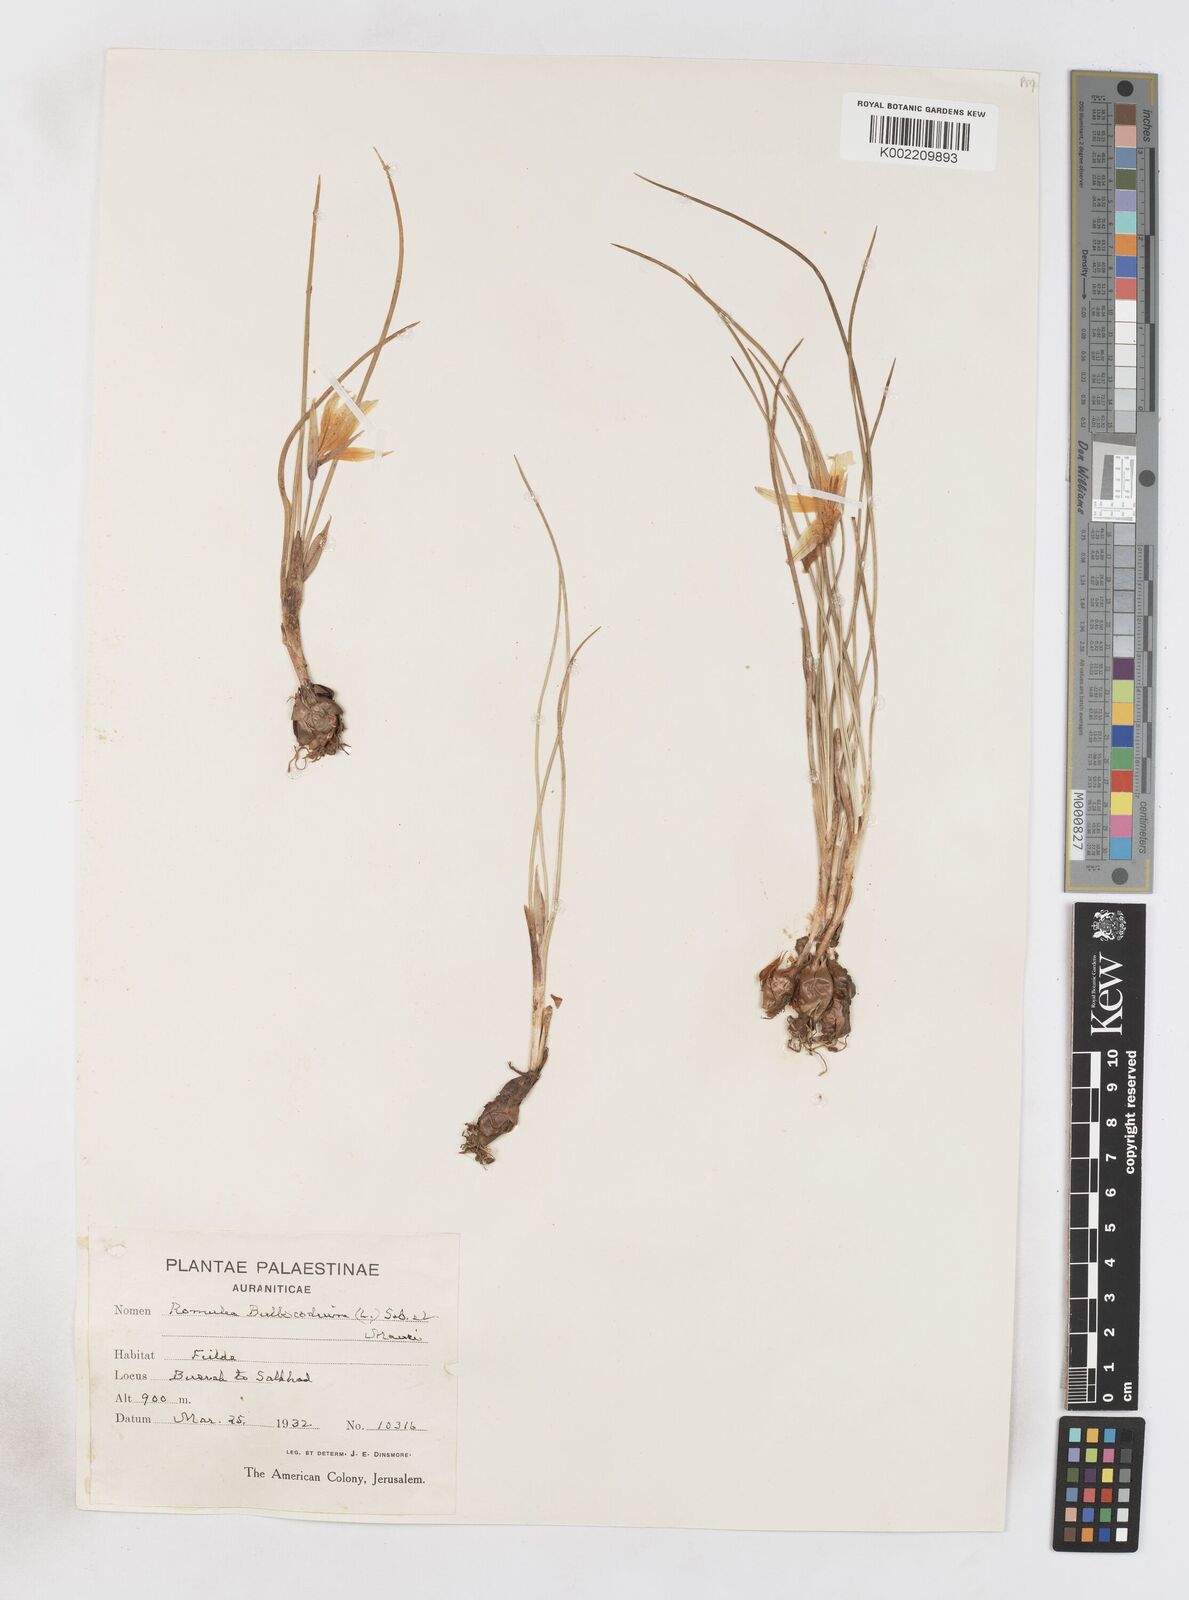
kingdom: Plantae
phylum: Tracheophyta
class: Liliopsida
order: Asparagales
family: Iridaceae
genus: Romulea
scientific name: Romulea bulbocodium
